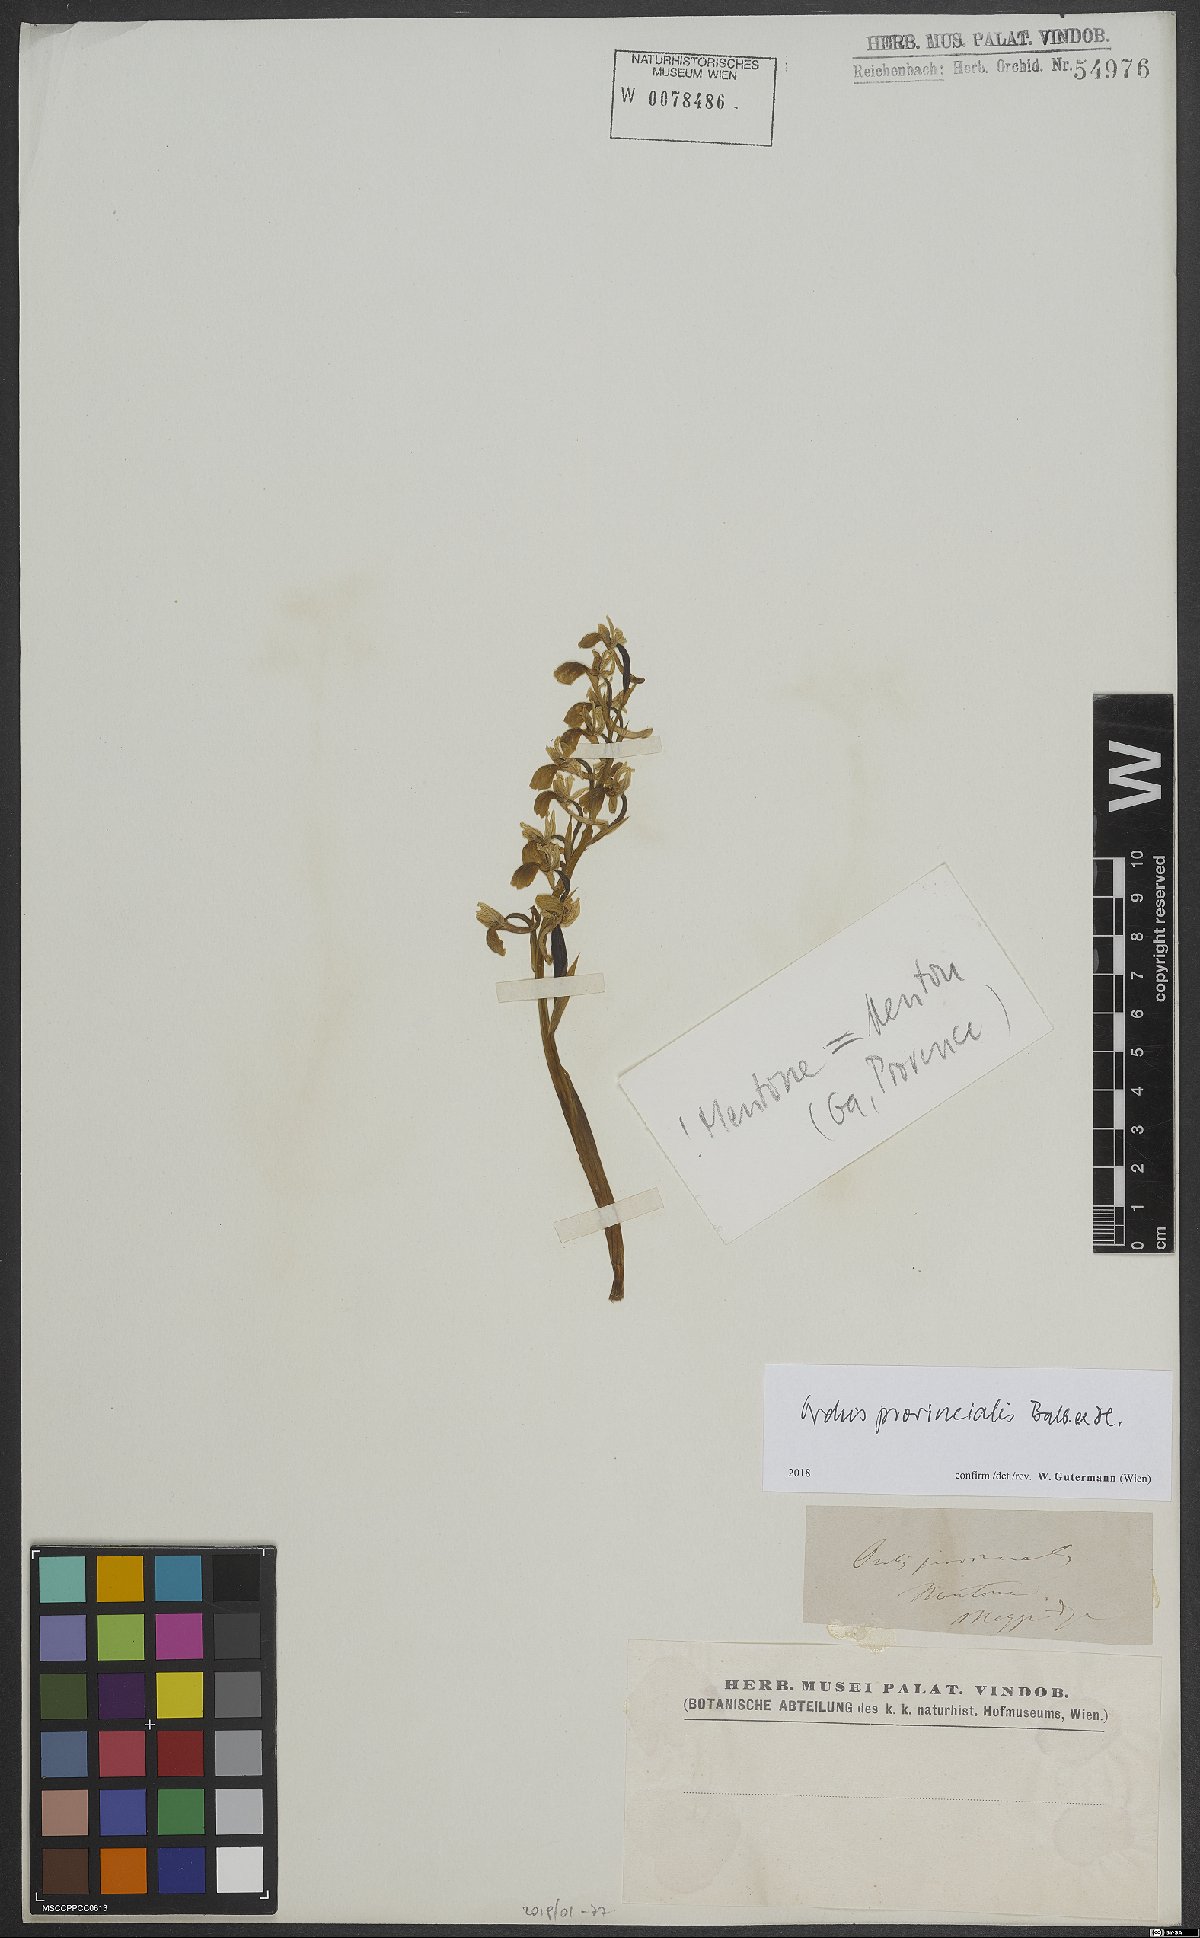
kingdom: Plantae
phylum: Tracheophyta
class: Liliopsida
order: Asparagales
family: Orchidaceae
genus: Orchis
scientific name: Orchis provincialis
